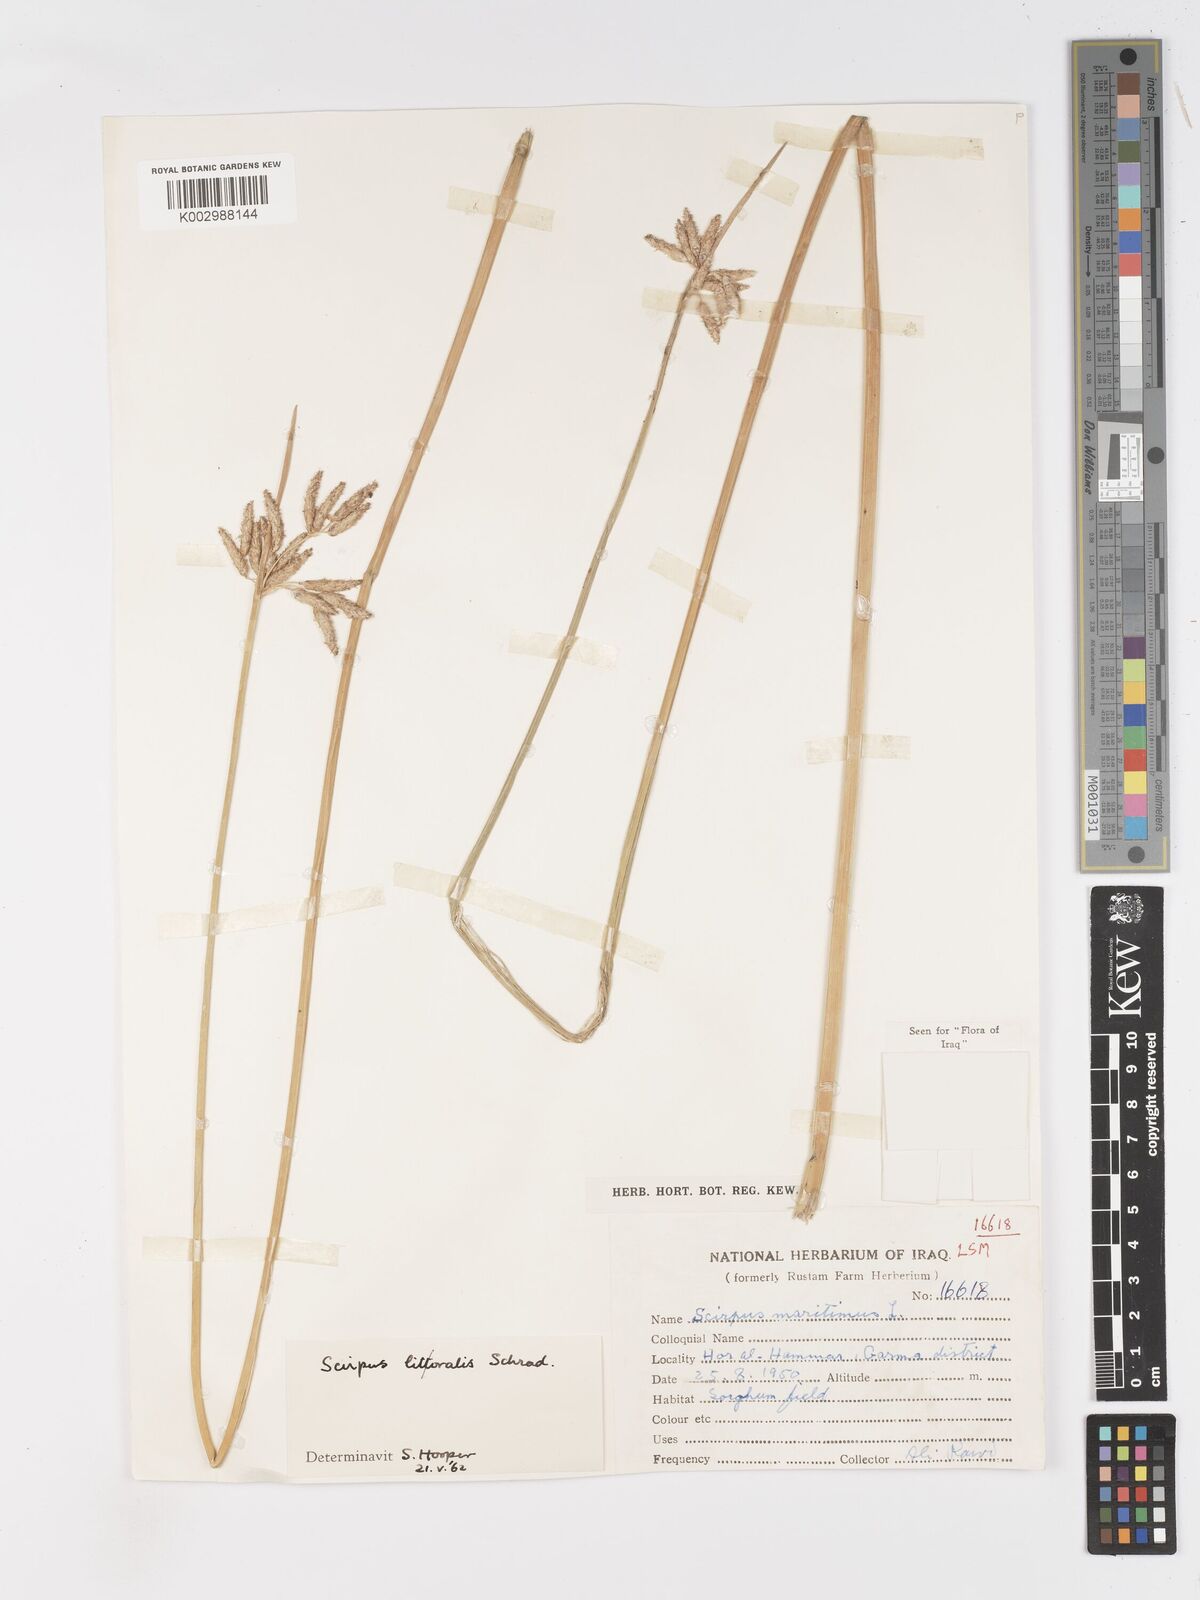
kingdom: Plantae
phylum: Tracheophyta
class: Liliopsida
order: Poales
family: Cyperaceae
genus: Schoenoplectus
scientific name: Schoenoplectus litoralis
